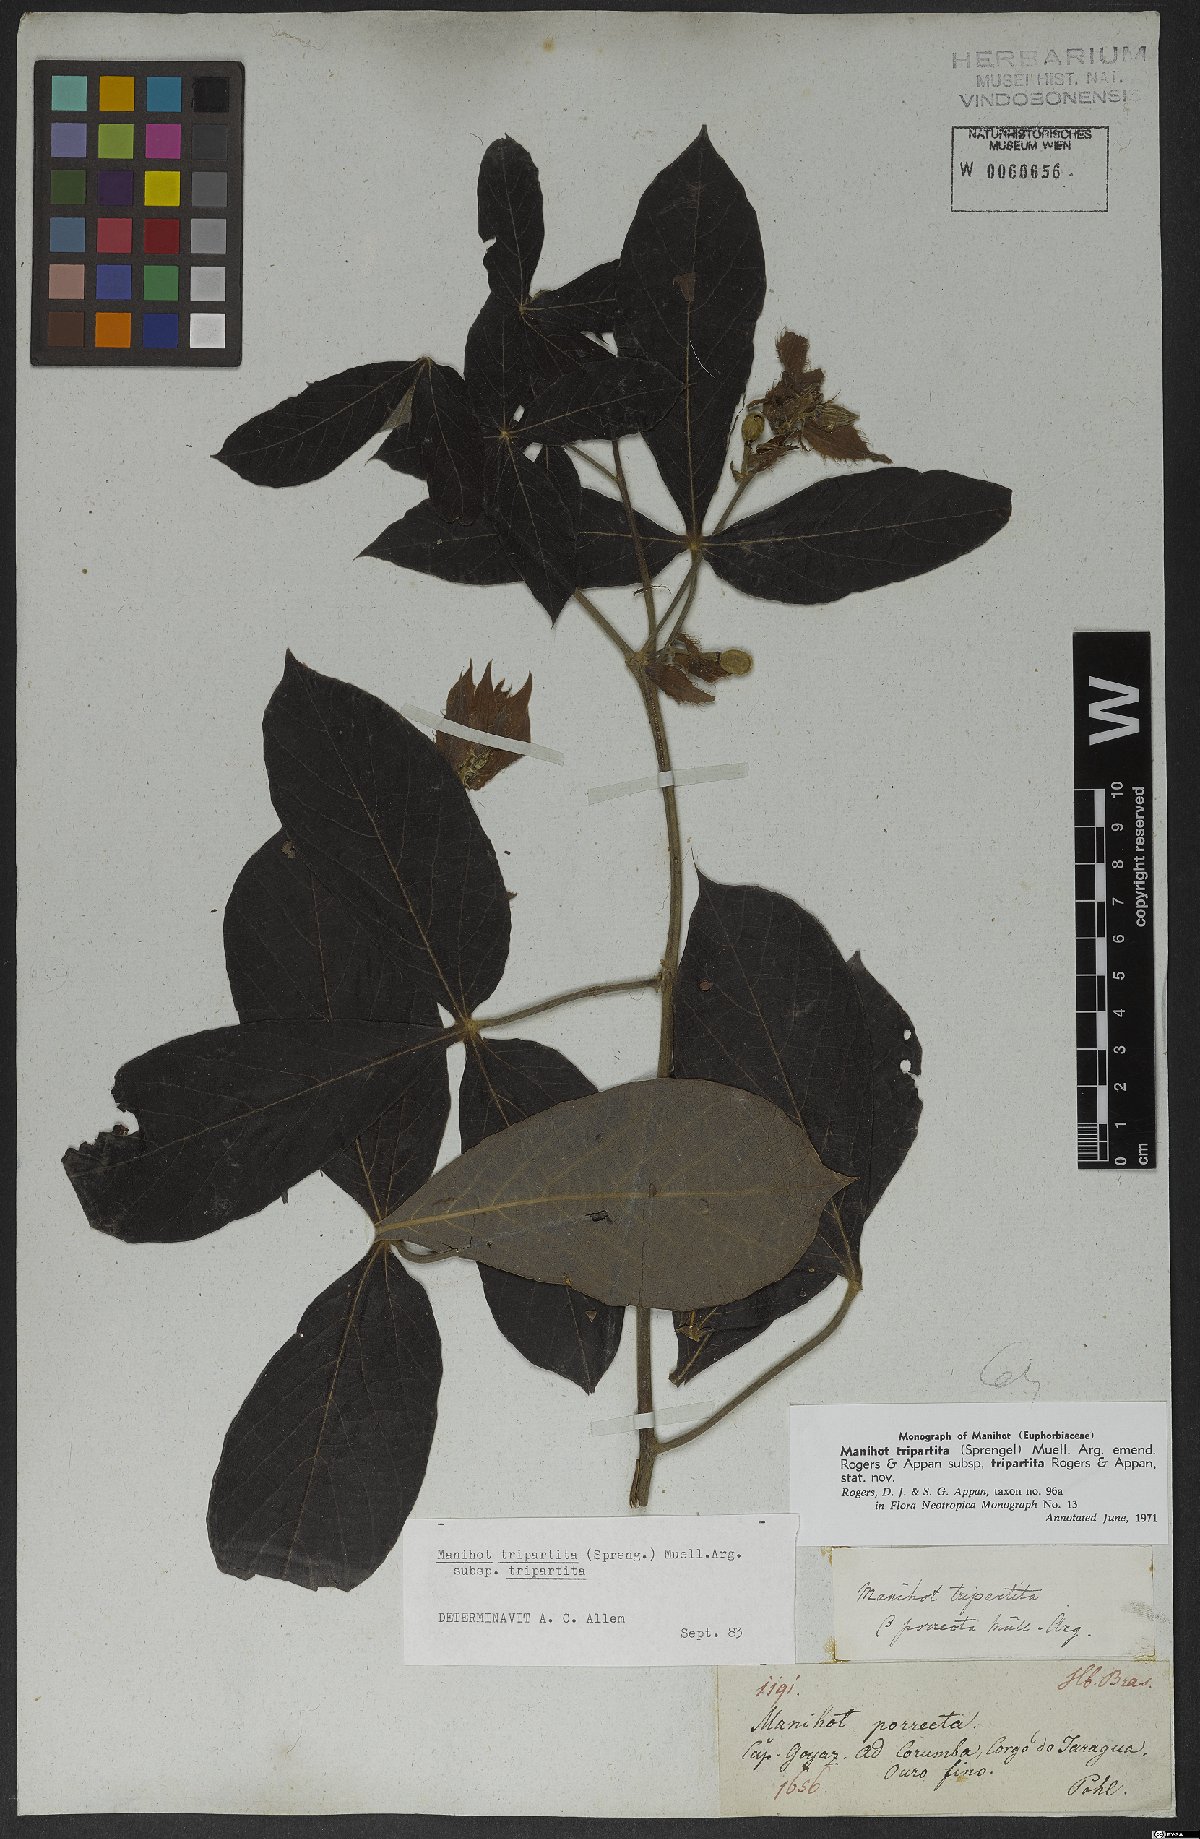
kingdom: Plantae
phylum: Tracheophyta
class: Magnoliopsida
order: Malpighiales
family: Euphorbiaceae
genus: Manihot
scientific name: Manihot tripartita
